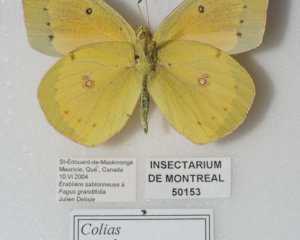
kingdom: Animalia
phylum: Arthropoda
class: Insecta
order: Lepidoptera
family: Pieridae
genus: Colias
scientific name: Colias eurytheme
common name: Orange Sulphur
